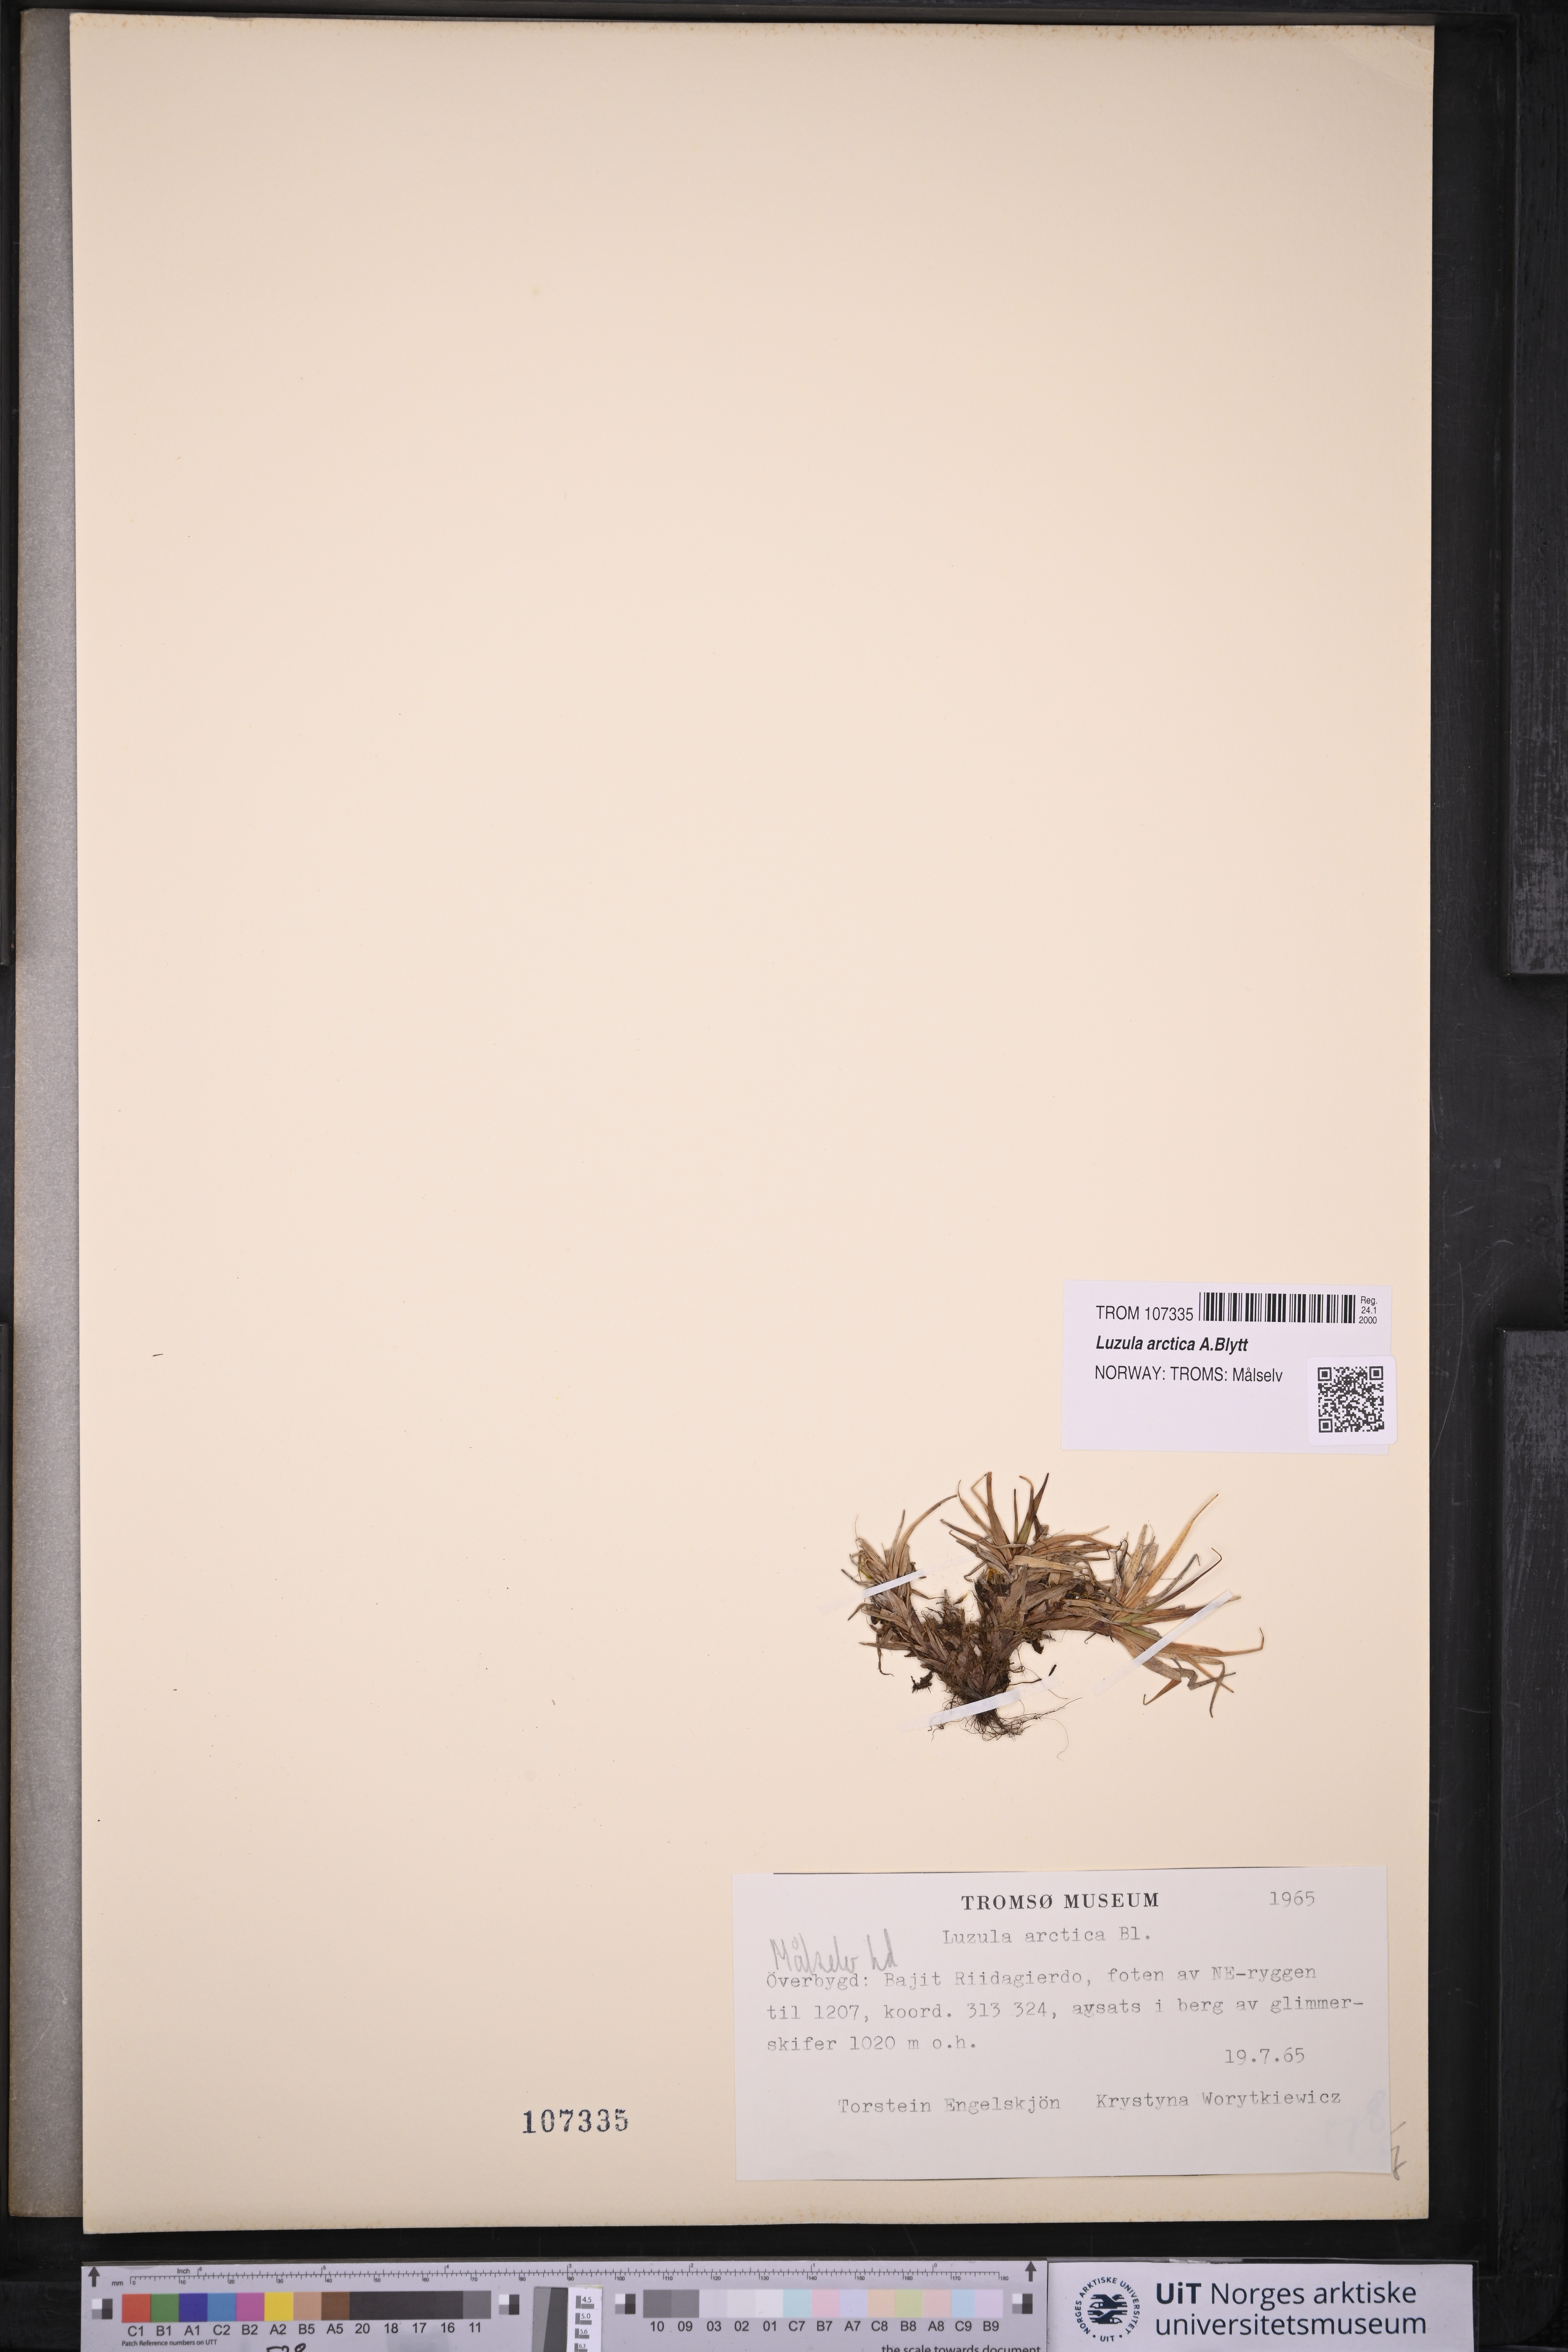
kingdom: Plantae
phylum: Tracheophyta
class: Liliopsida
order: Poales
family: Juncaceae
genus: Luzula
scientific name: Luzula nivalis
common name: Arctic woodrush
